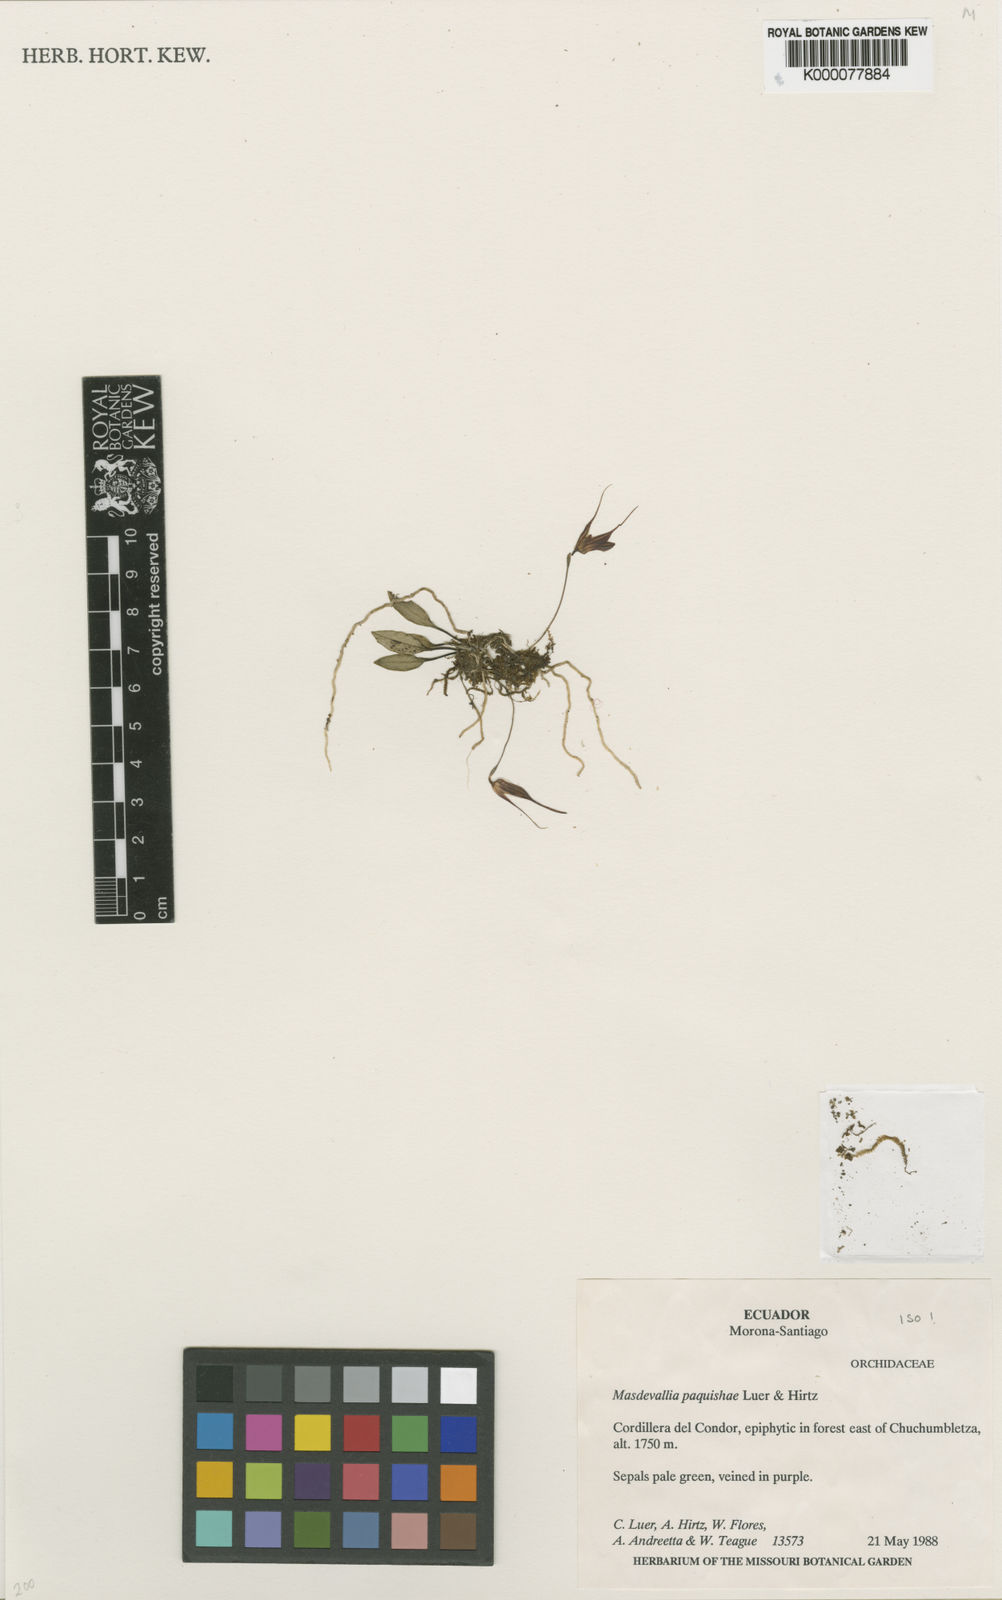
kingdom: Plantae
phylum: Tracheophyta
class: Liliopsida
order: Asparagales
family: Orchidaceae
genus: Masdevallia
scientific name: Masdevallia paquishae
